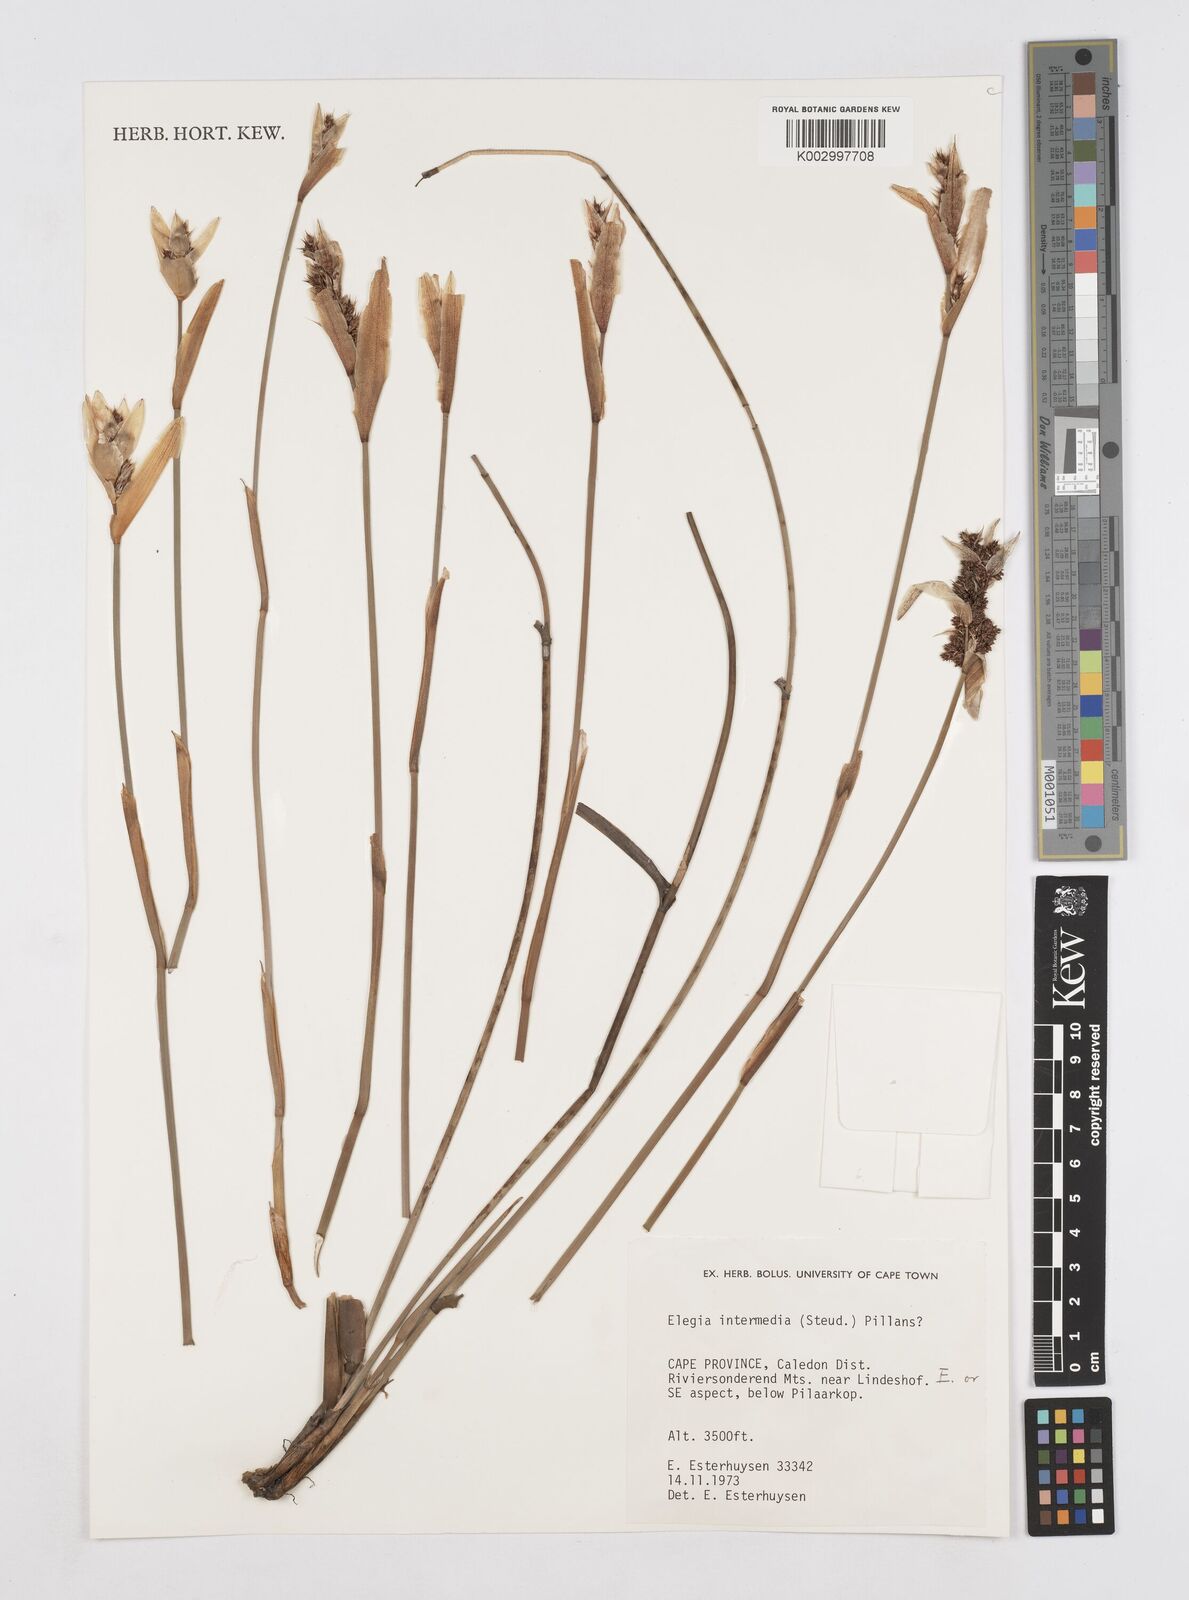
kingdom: Plantae
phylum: Tracheophyta
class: Liliopsida
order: Poales
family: Restionaceae
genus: Elegia
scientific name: Elegia intermedia
